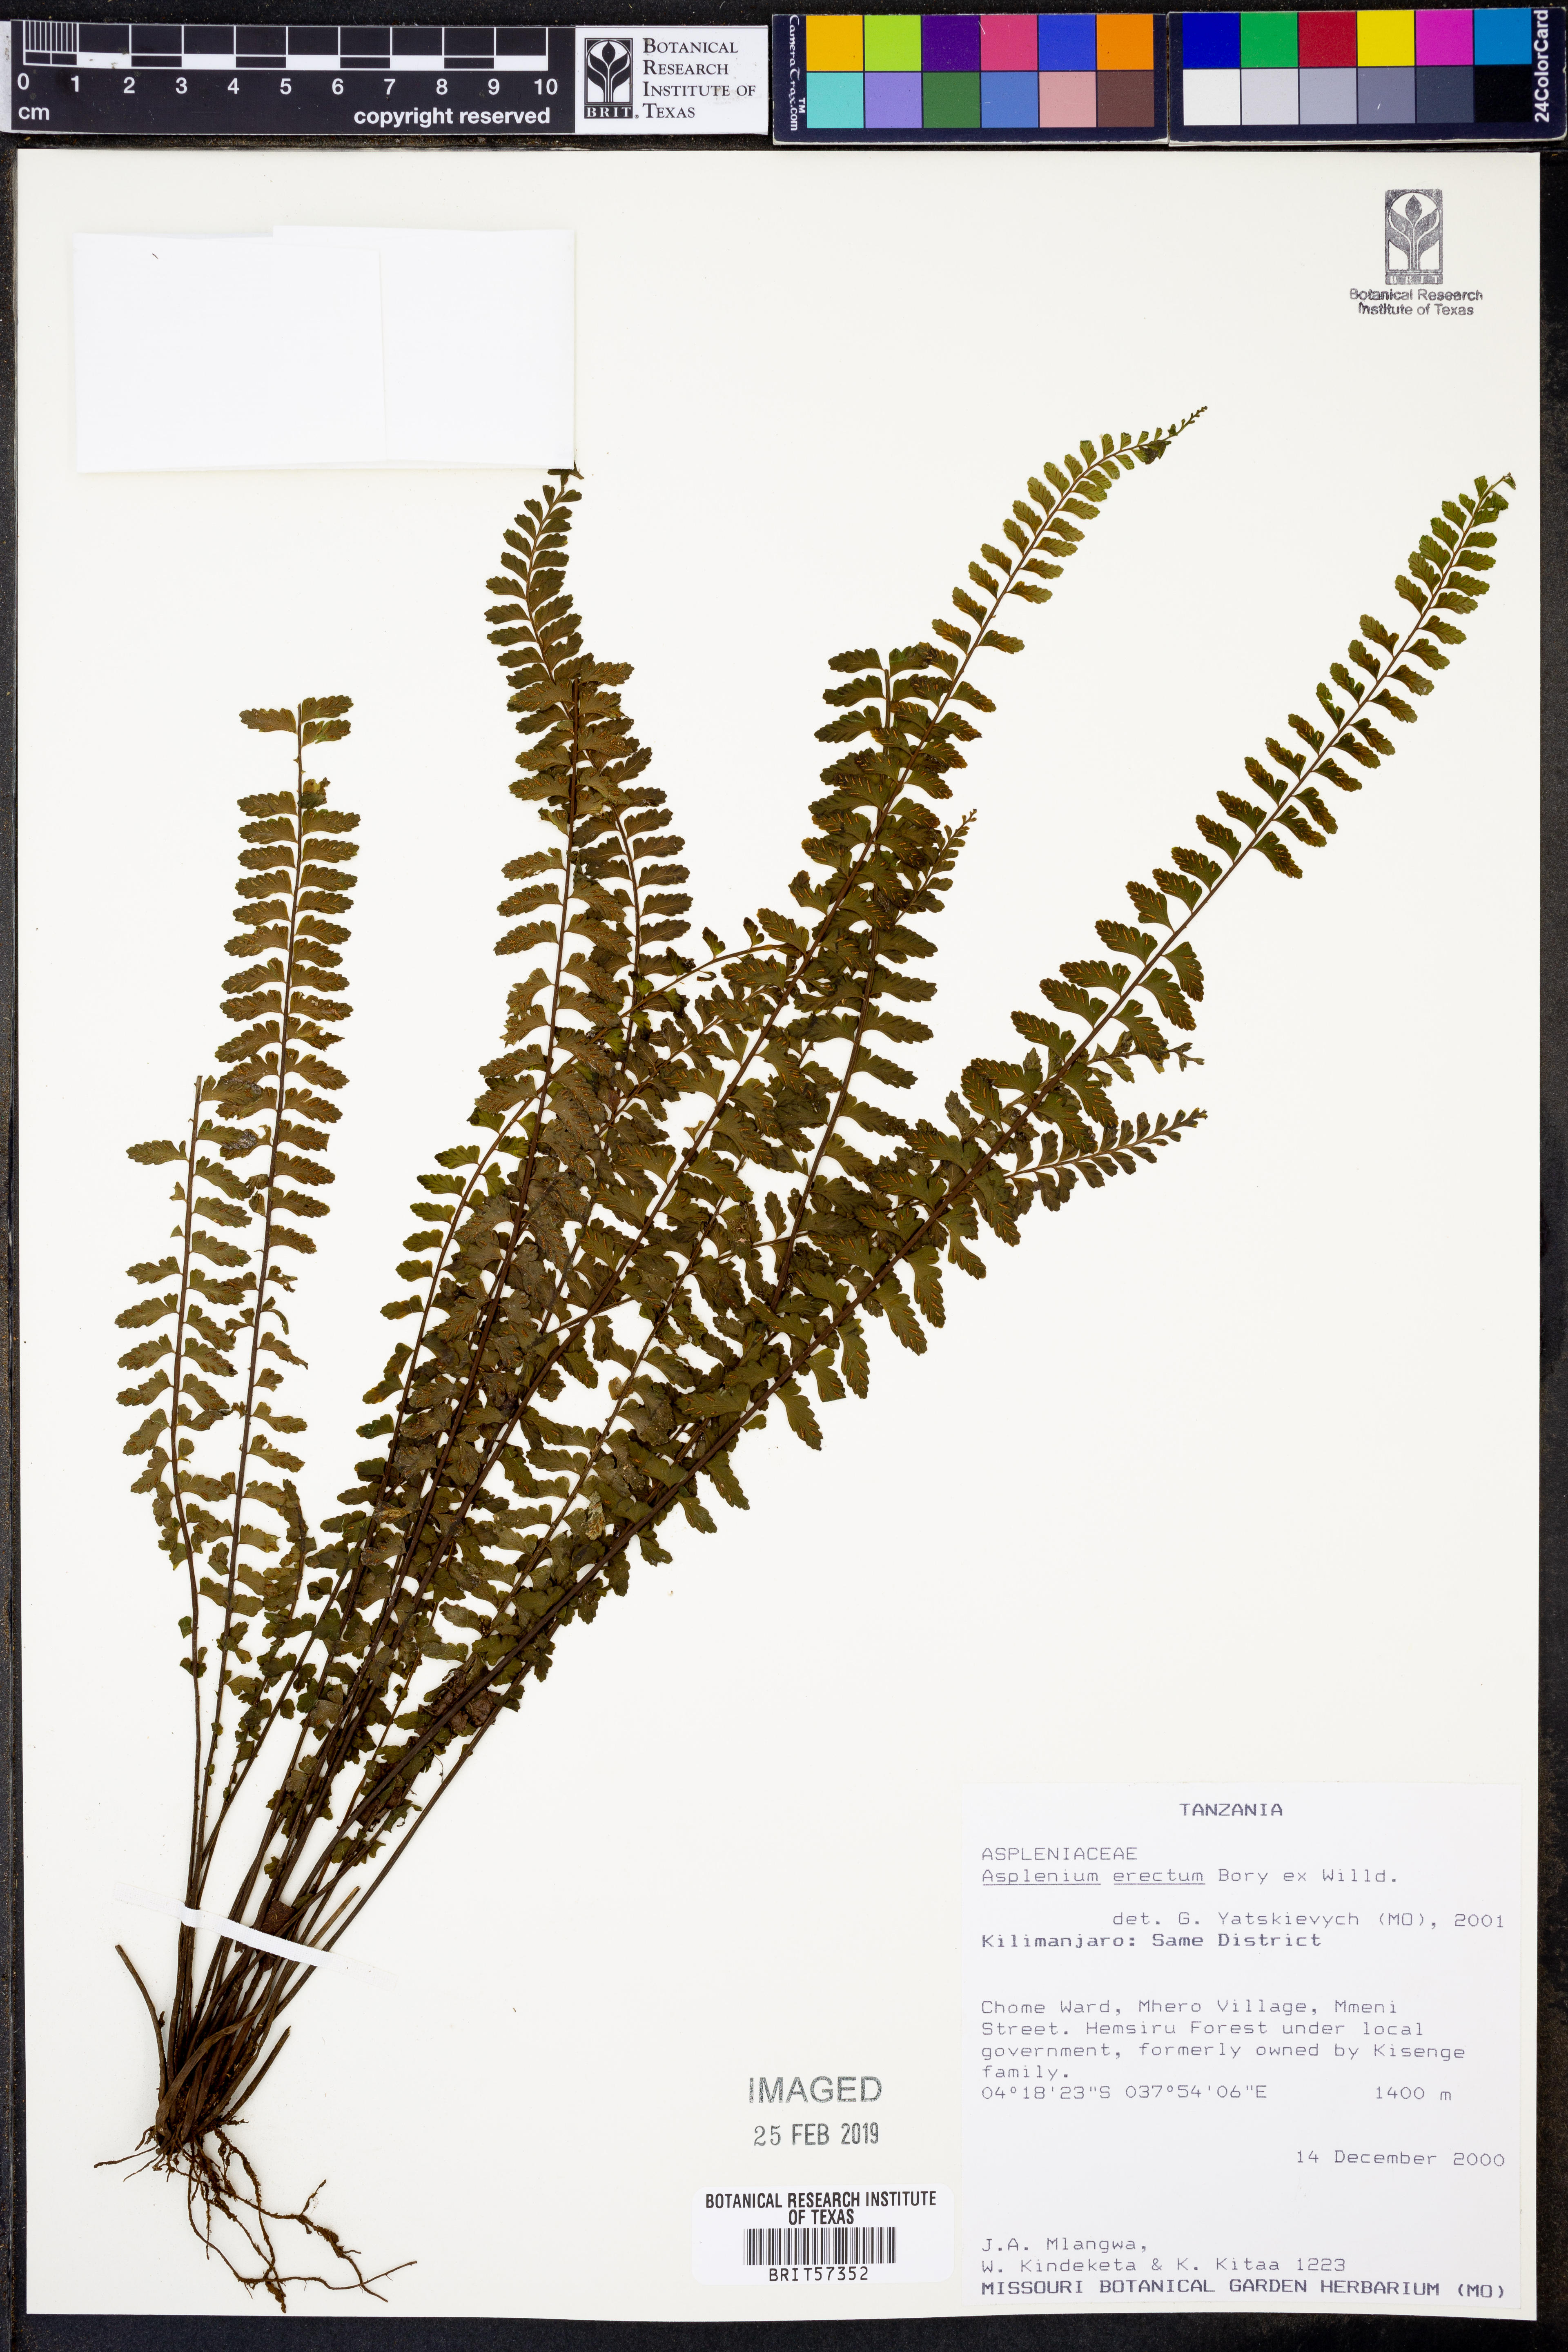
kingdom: Plantae
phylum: Tracheophyta
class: Polypodiopsida
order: Polypodiales
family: Aspleniaceae
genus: Asplenium
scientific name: Asplenium erectum
